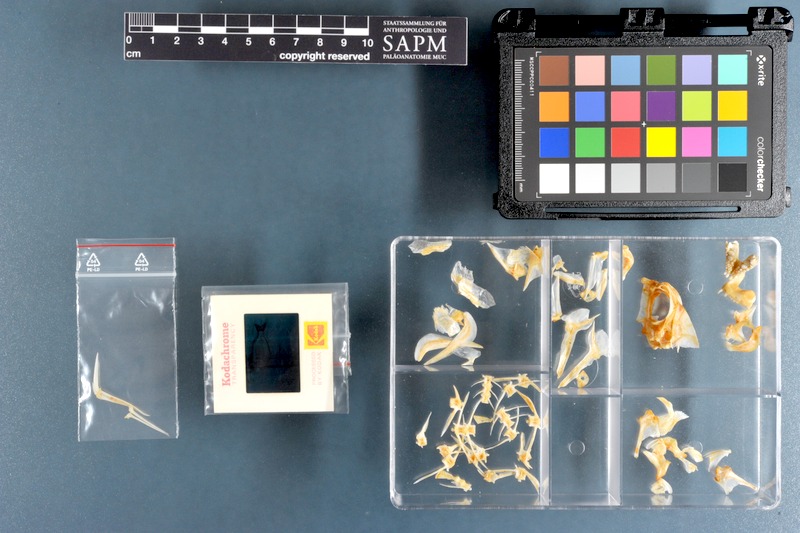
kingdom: Animalia
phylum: Chordata
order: Perciformes
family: Sparidae
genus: Rhabdosargus
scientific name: Rhabdosargus sarba
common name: Goldlined seabream
